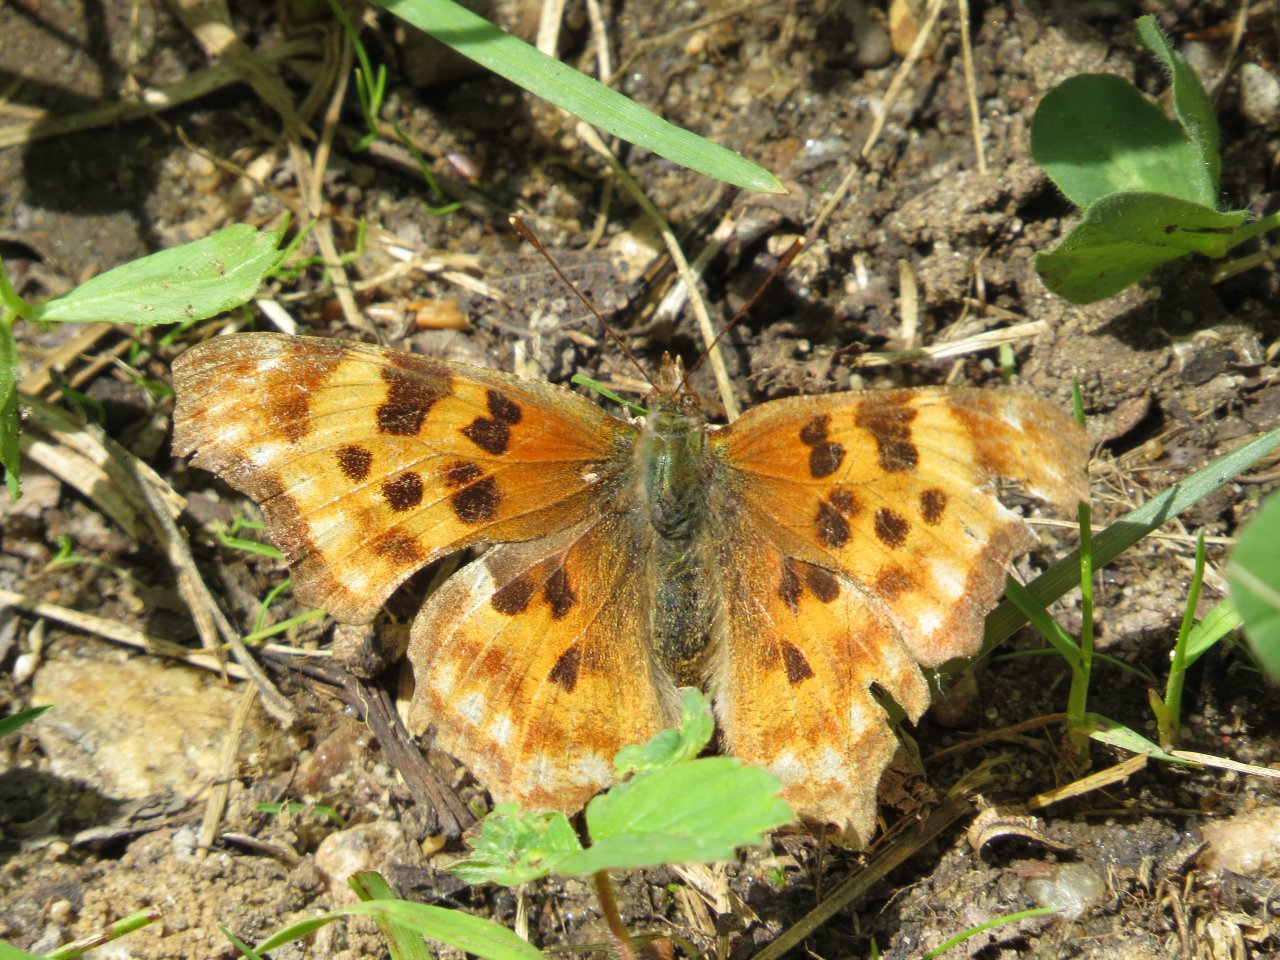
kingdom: Animalia
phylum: Arthropoda
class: Insecta
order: Lepidoptera
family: Nymphalidae
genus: Polygonia
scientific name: Polygonia faunus
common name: Green Comma
